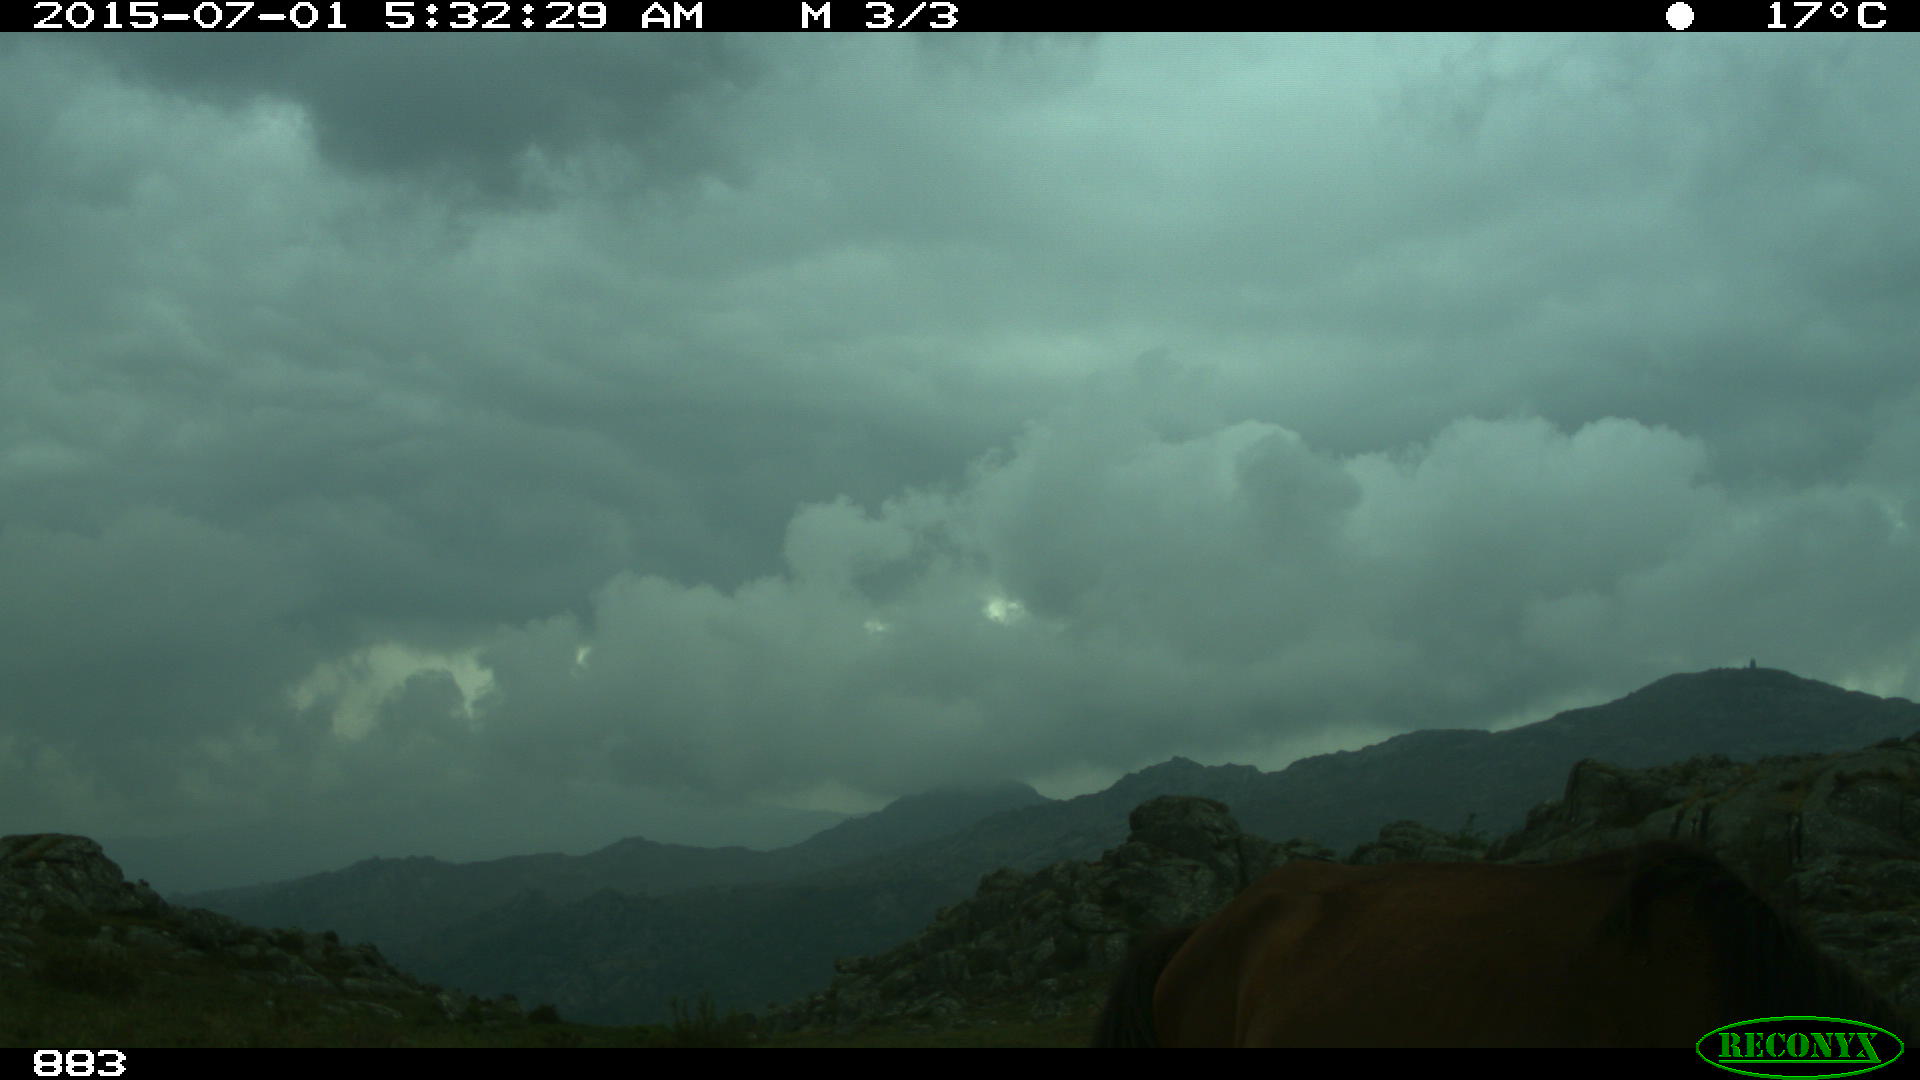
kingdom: Animalia
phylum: Chordata
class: Mammalia
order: Perissodactyla
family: Equidae
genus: Equus
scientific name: Equus caballus
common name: Horse
